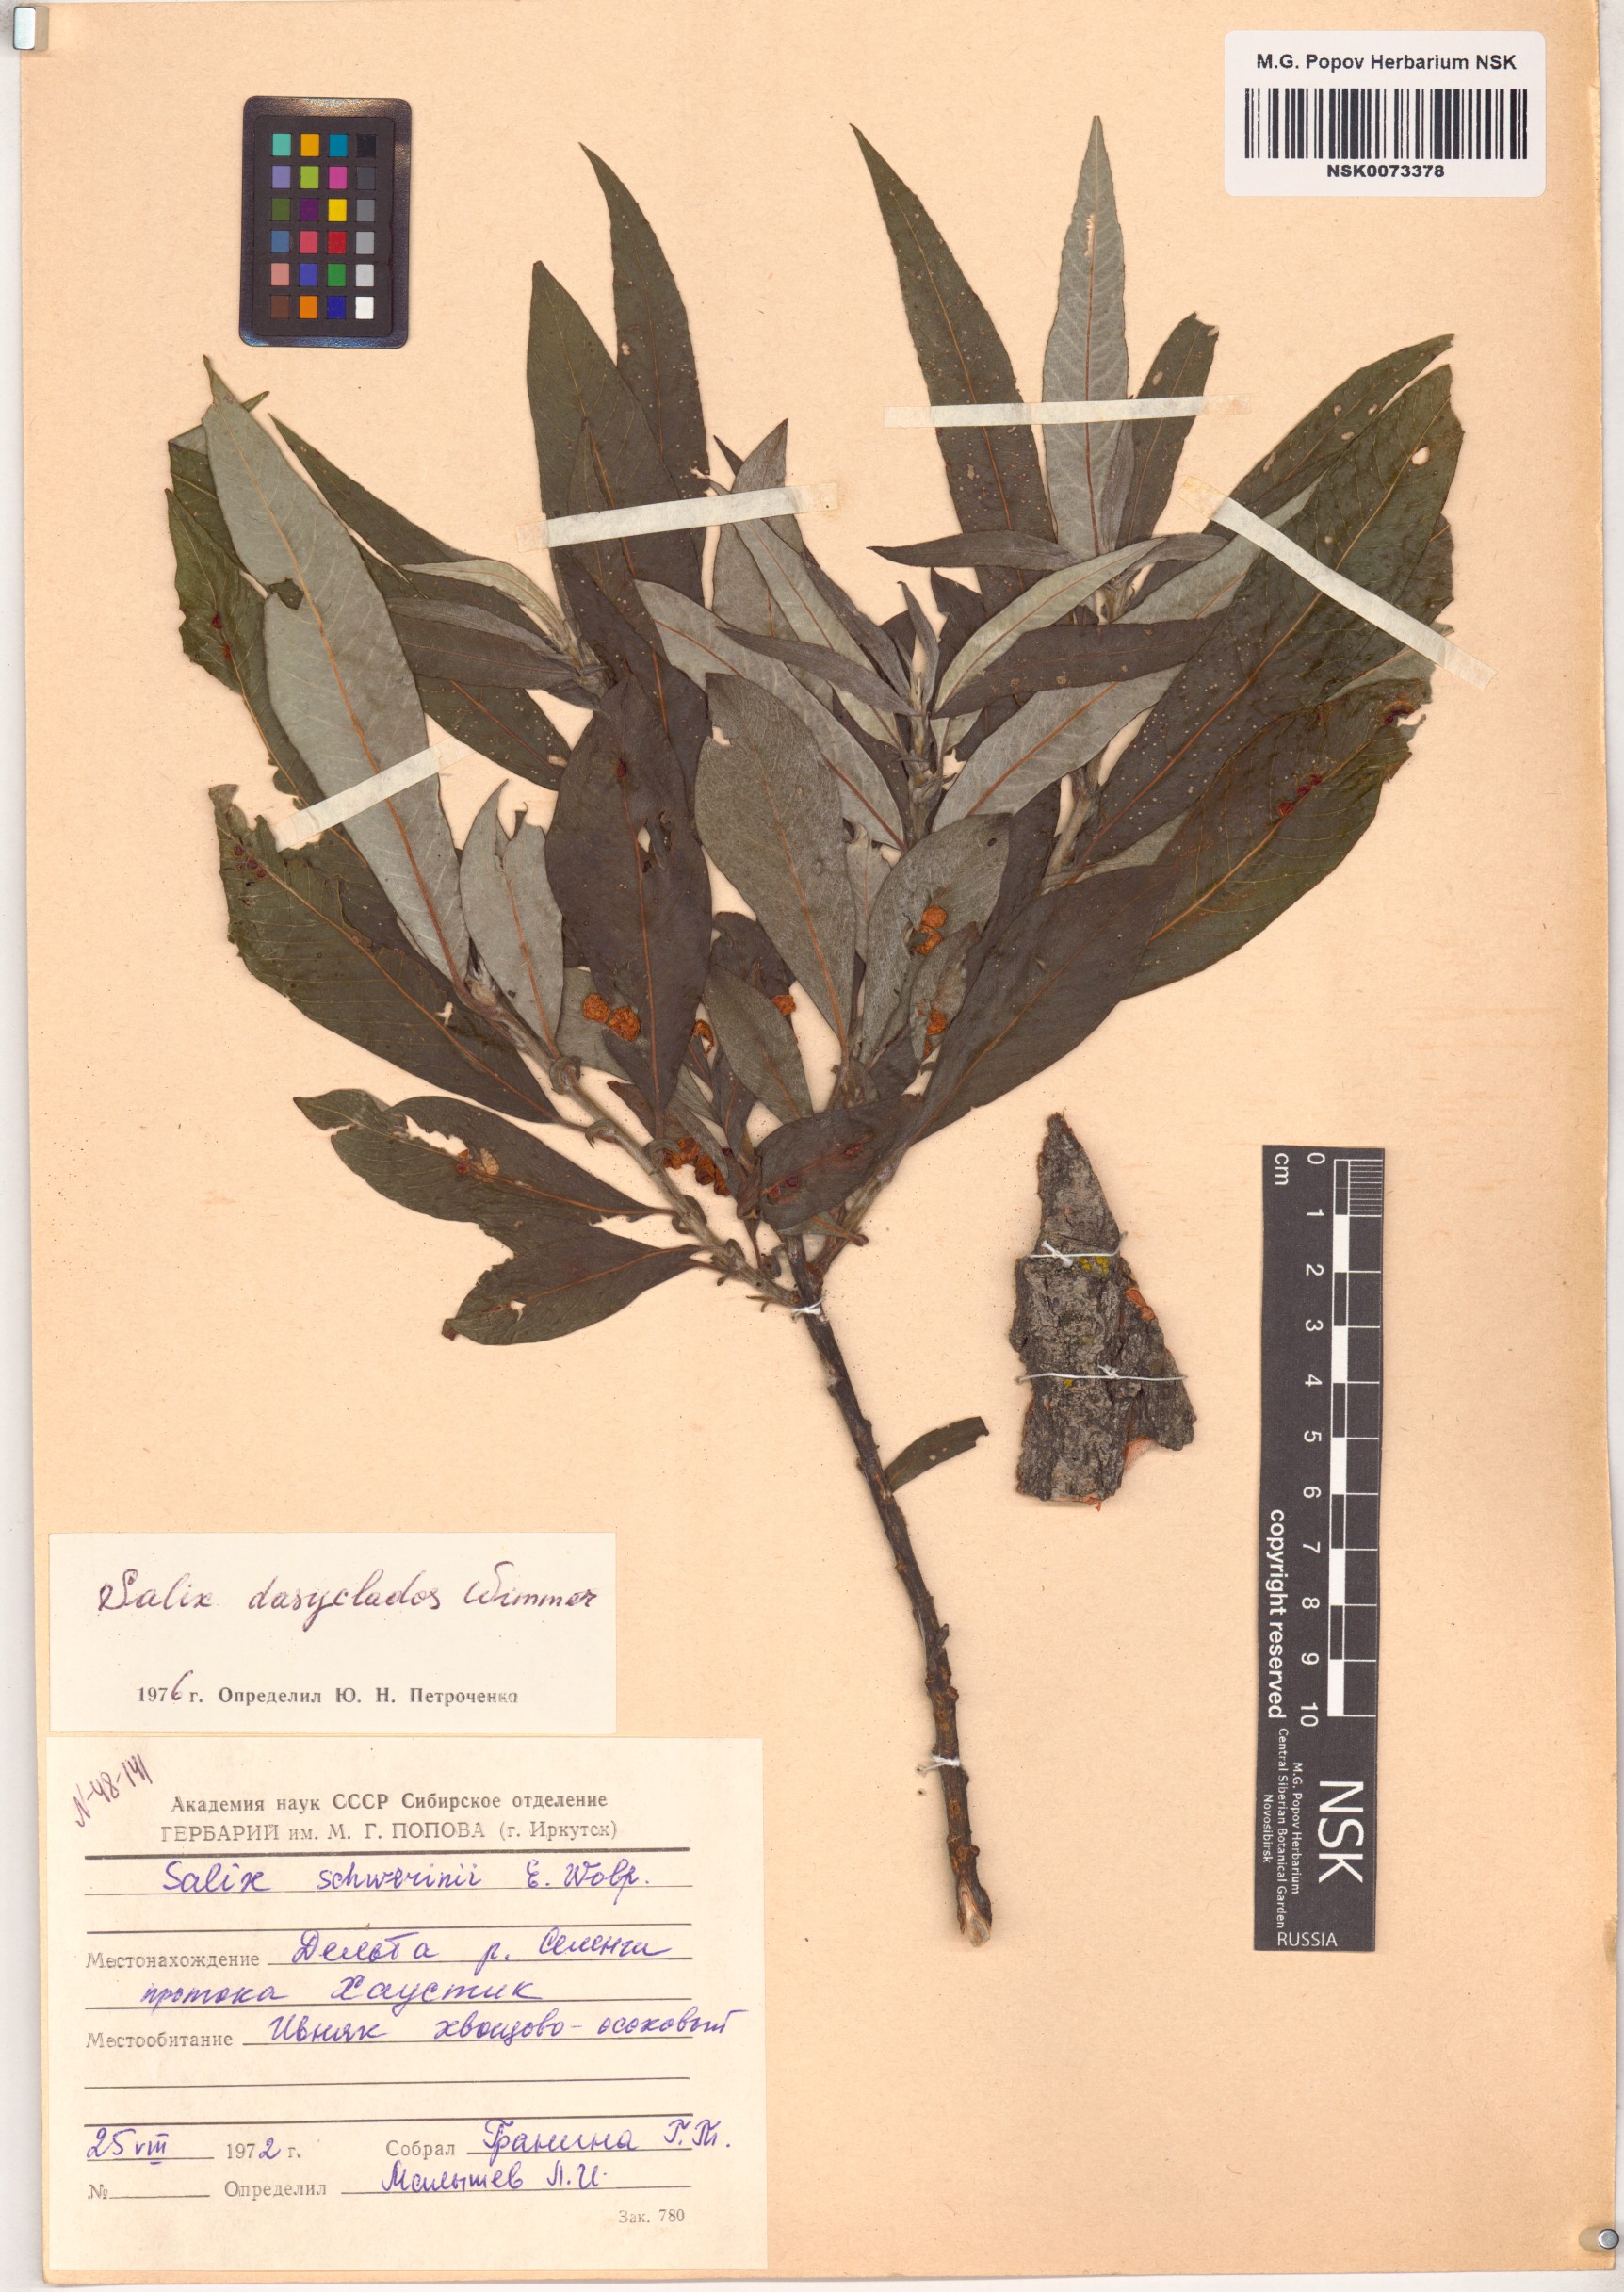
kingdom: Plantae
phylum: Tracheophyta
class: Magnoliopsida
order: Malpighiales
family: Salicaceae
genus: Salix
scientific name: Salix gmelinii
